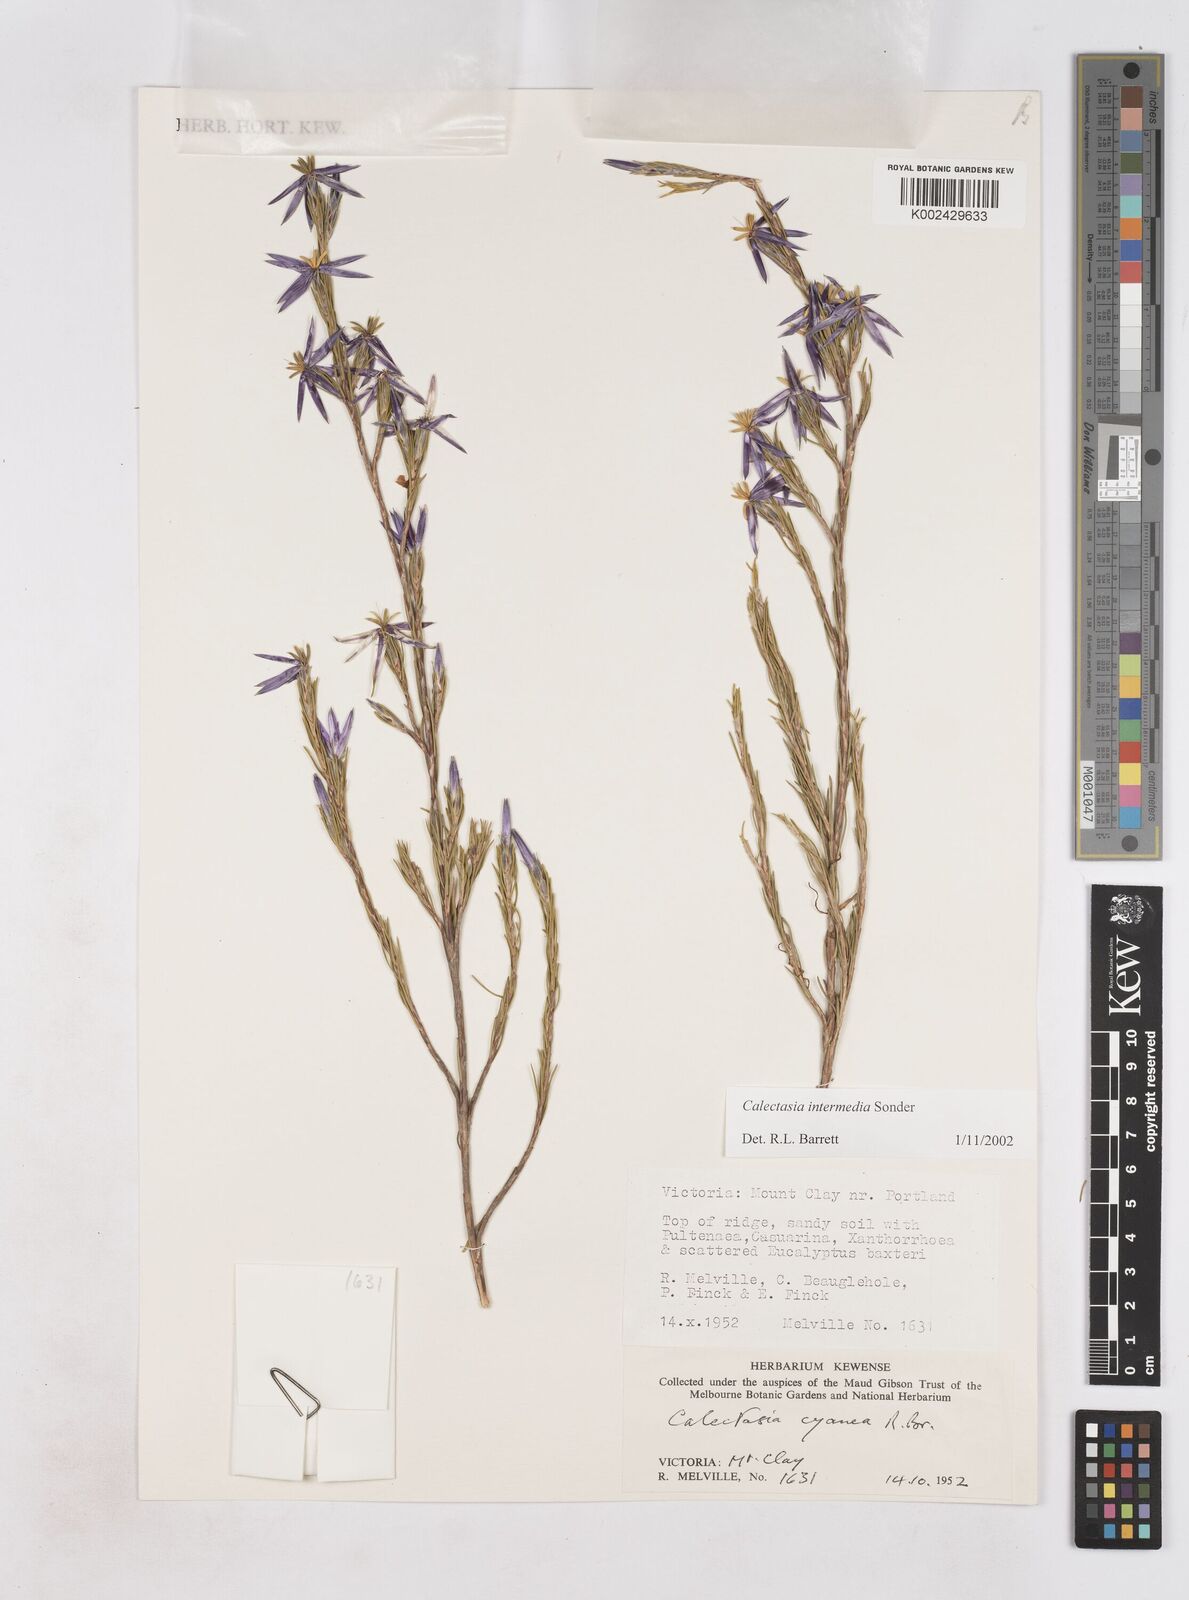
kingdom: Plantae
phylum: Tracheophyta
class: Liliopsida
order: Arecales
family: Dasypogonaceae
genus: Calectasia
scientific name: Calectasia intermedia
